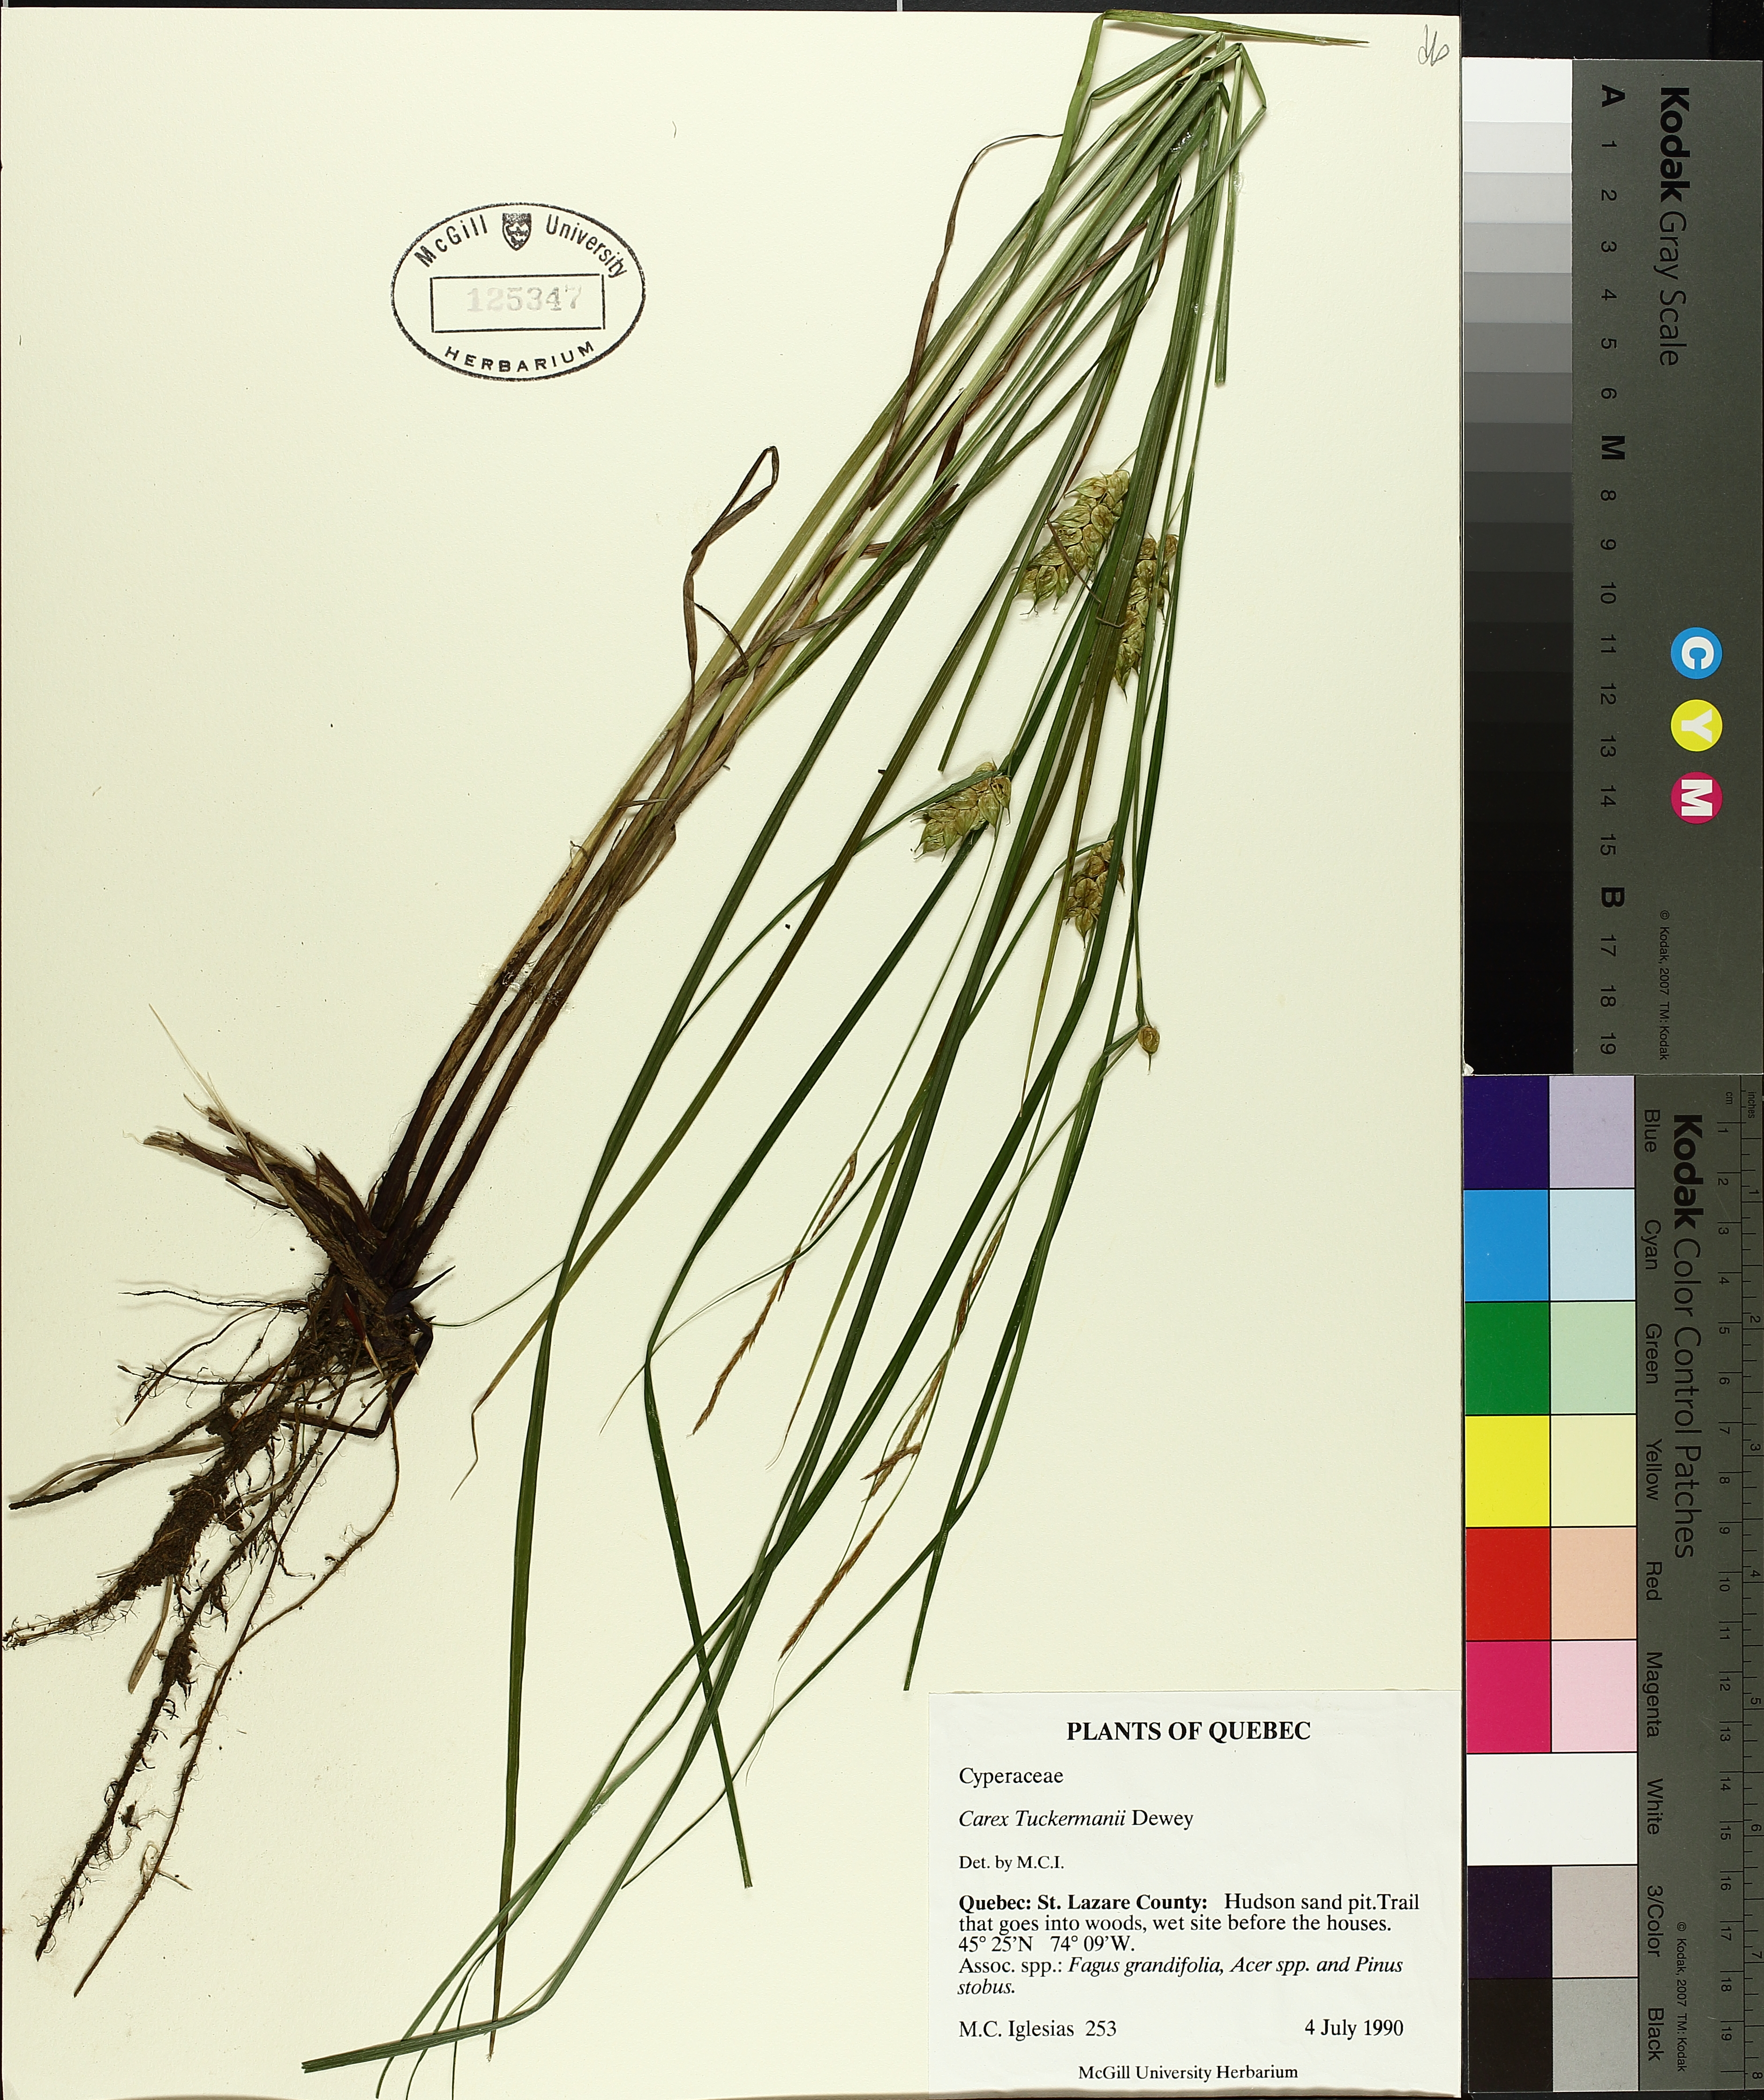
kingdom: Plantae
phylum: Tracheophyta
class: Liliopsida
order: Poales
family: Cyperaceae
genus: Carex
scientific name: Carex tuckermanii
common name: Tuckerman's sedge
